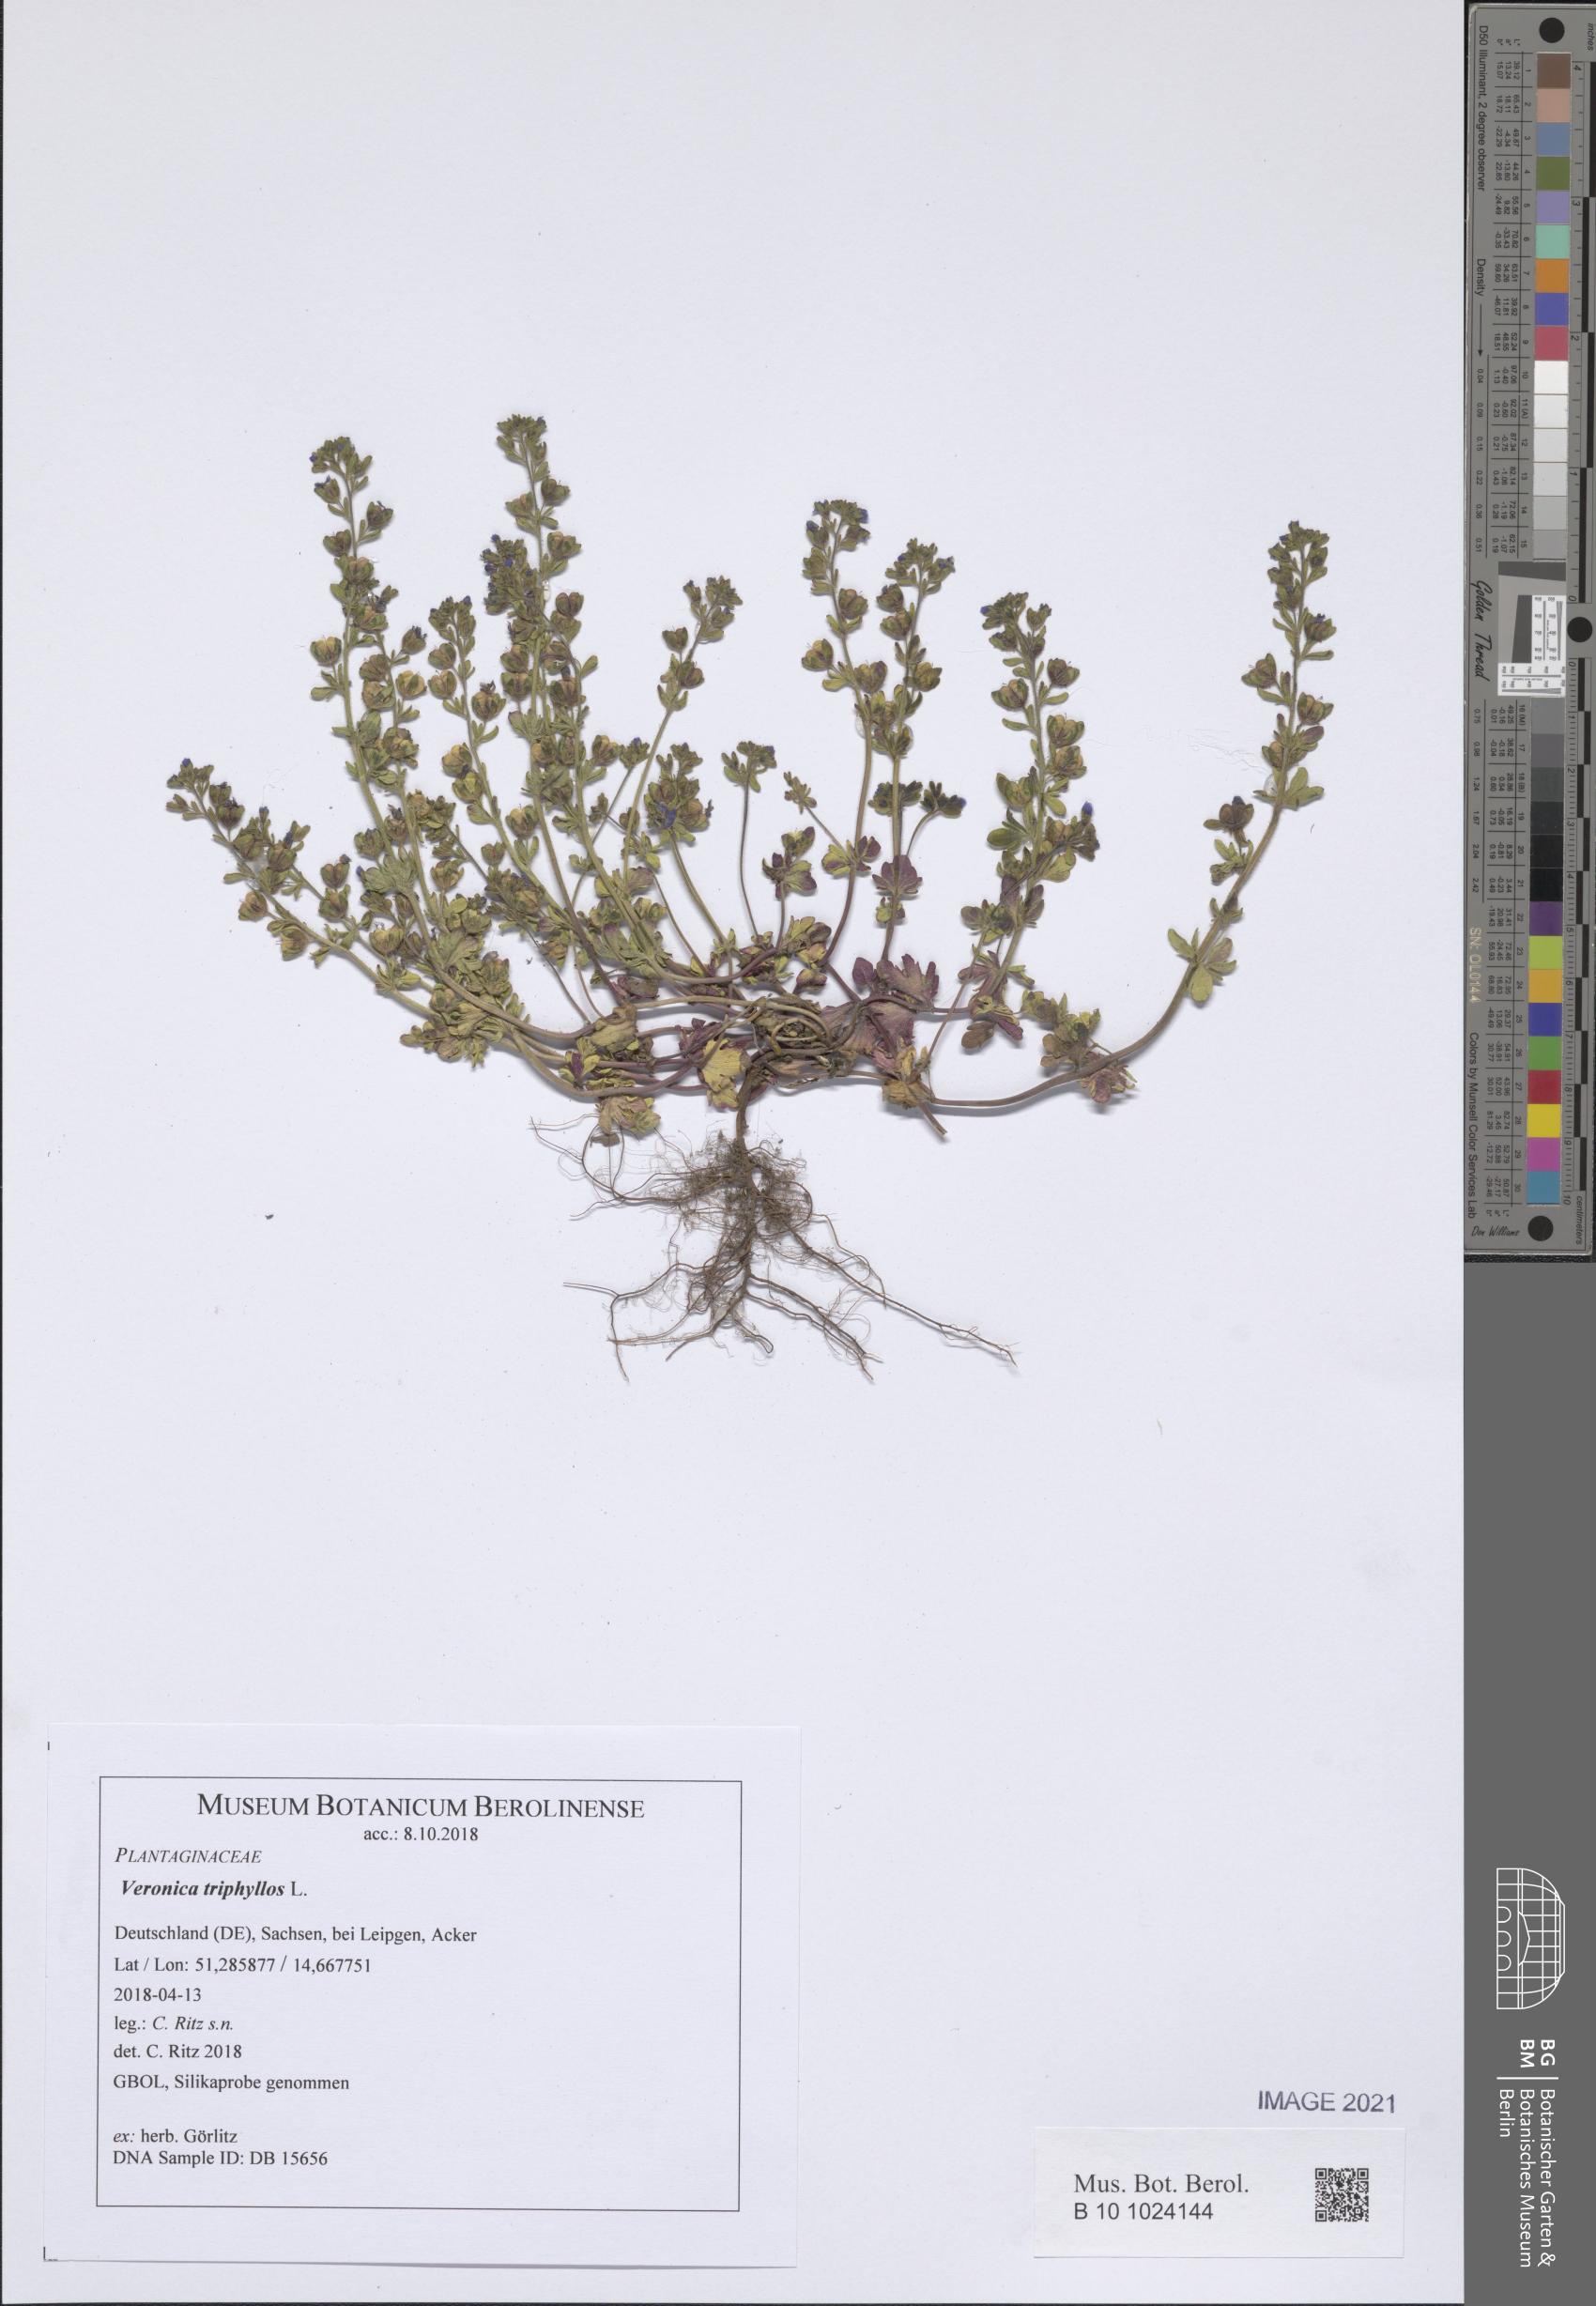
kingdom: Plantae
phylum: Tracheophyta
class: Magnoliopsida
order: Lamiales
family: Plantaginaceae
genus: Veronica
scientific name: Veronica triphyllos
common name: Fingered speedwell
